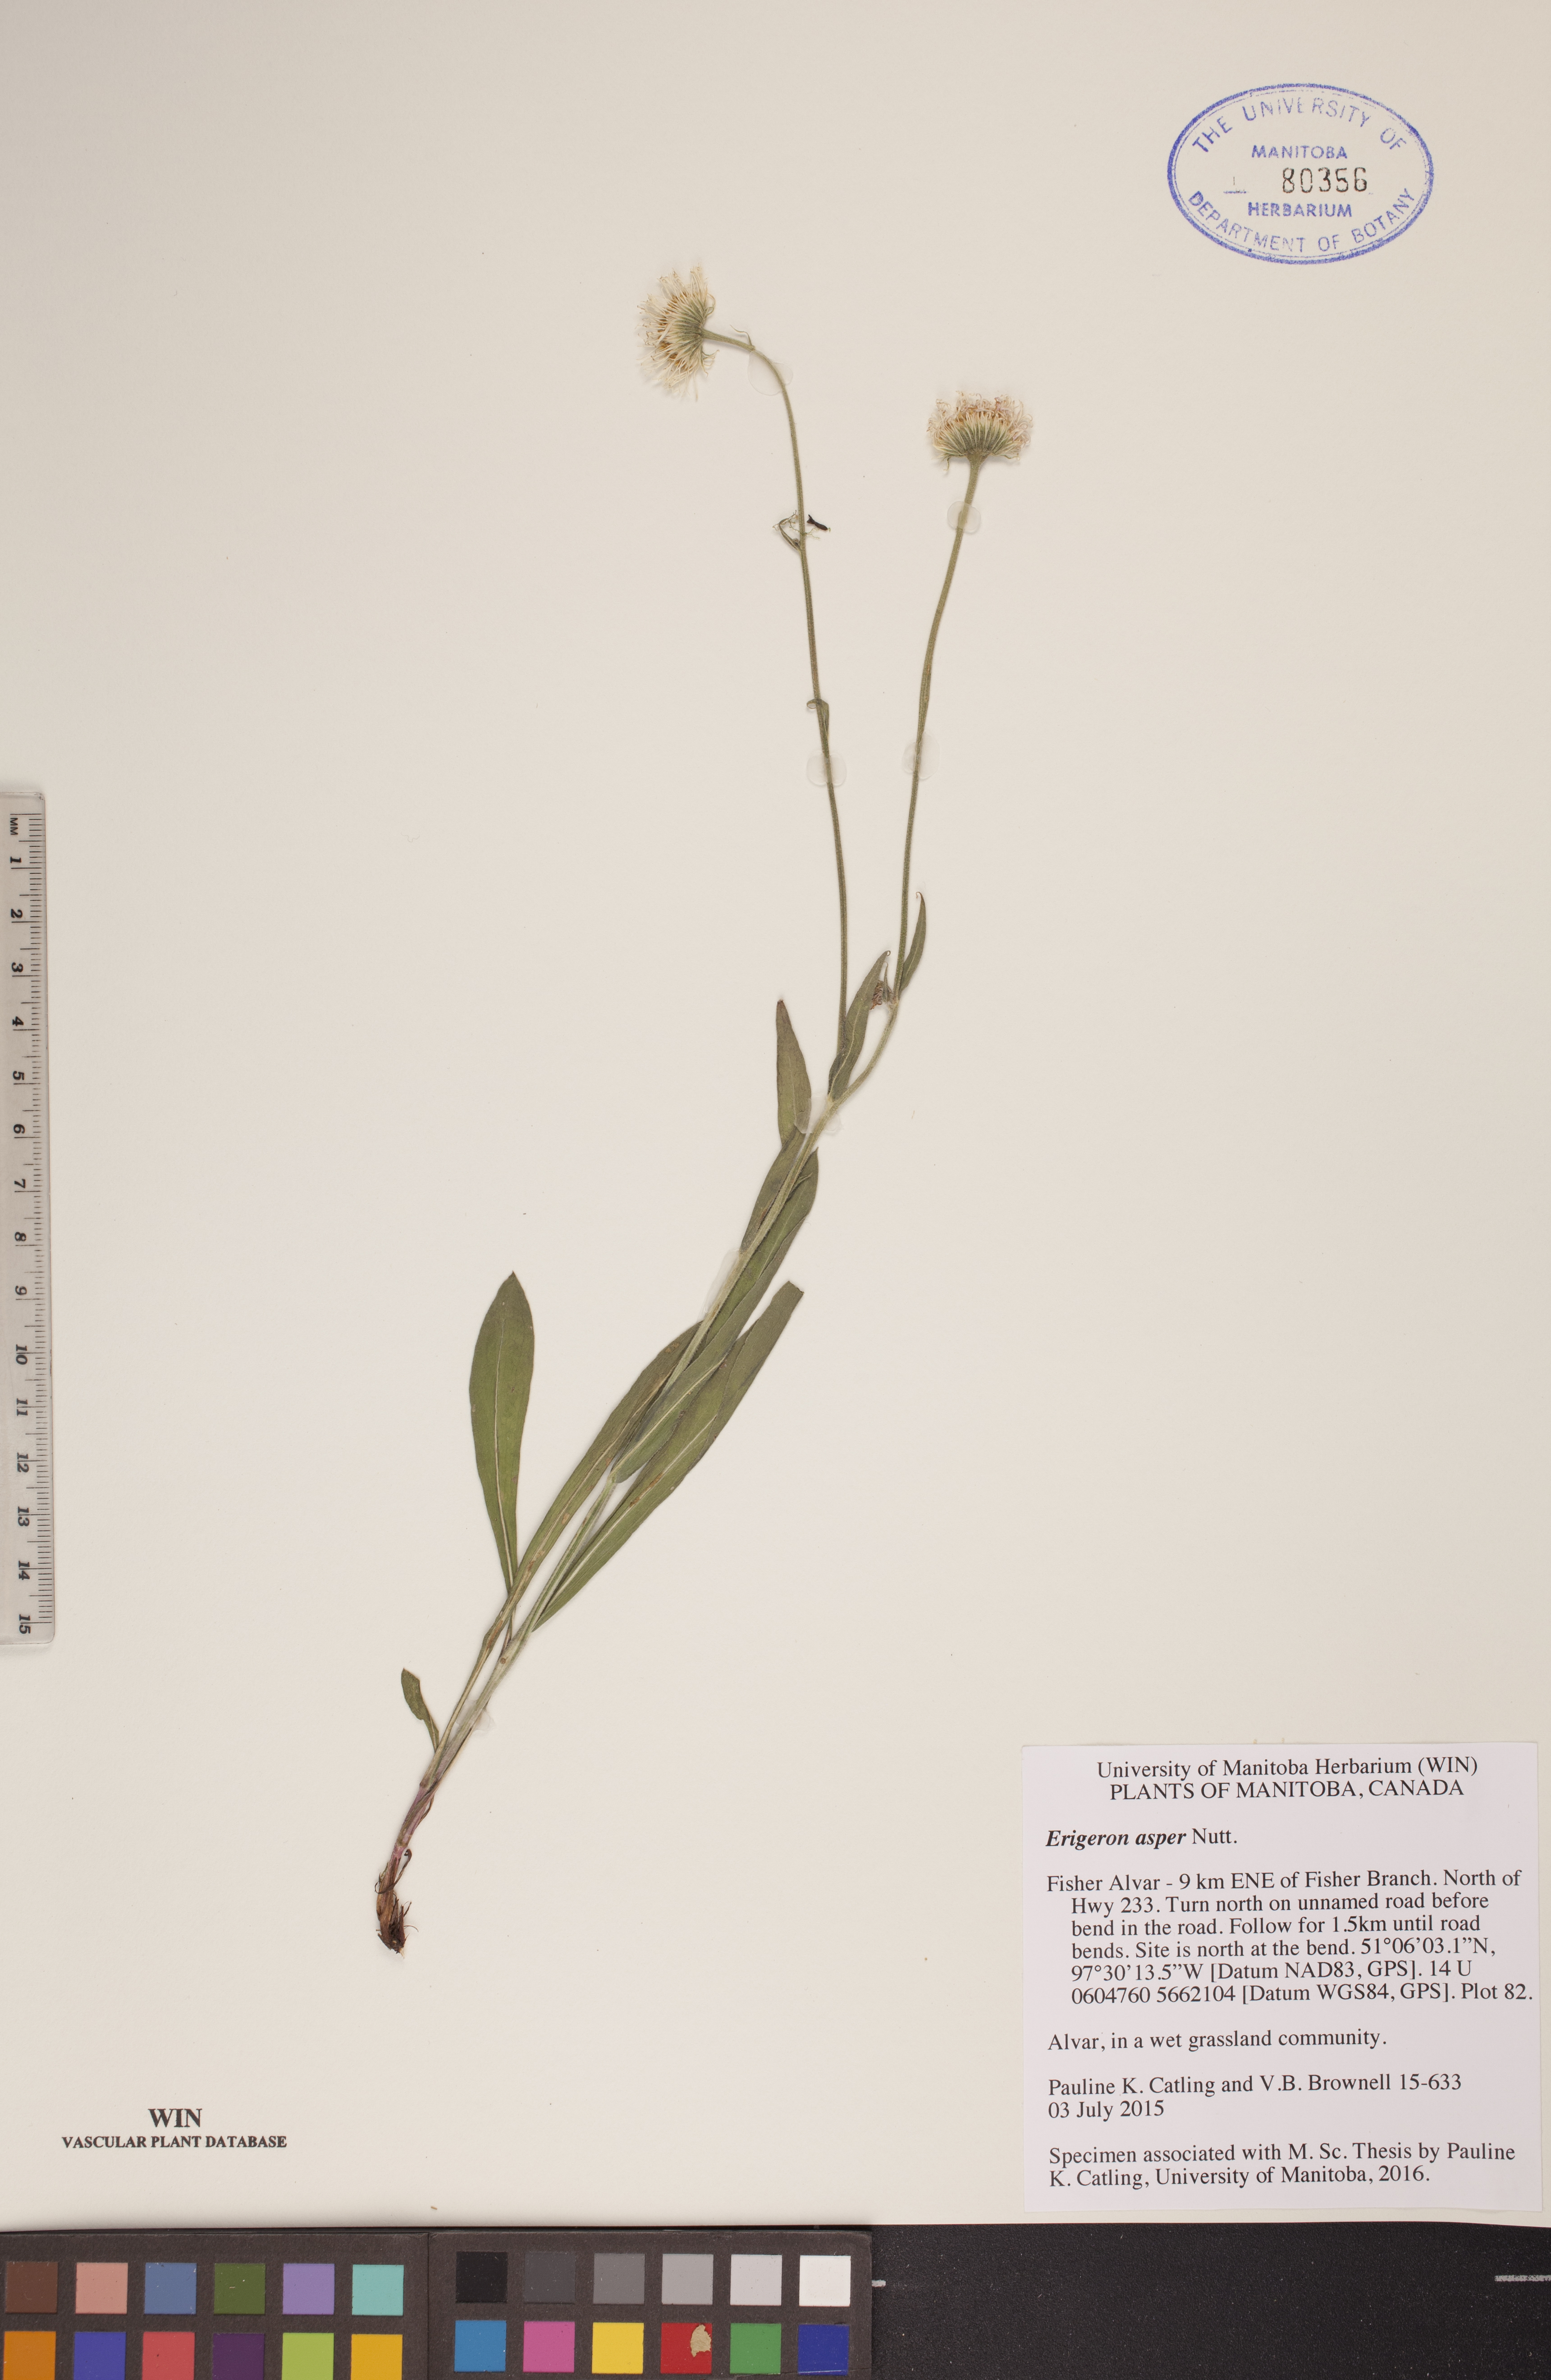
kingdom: Plantae
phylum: Tracheophyta
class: Magnoliopsida
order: Asterales
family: Asteraceae
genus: Erigeron
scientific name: Erigeron glabellus
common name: Smooth fleabane
